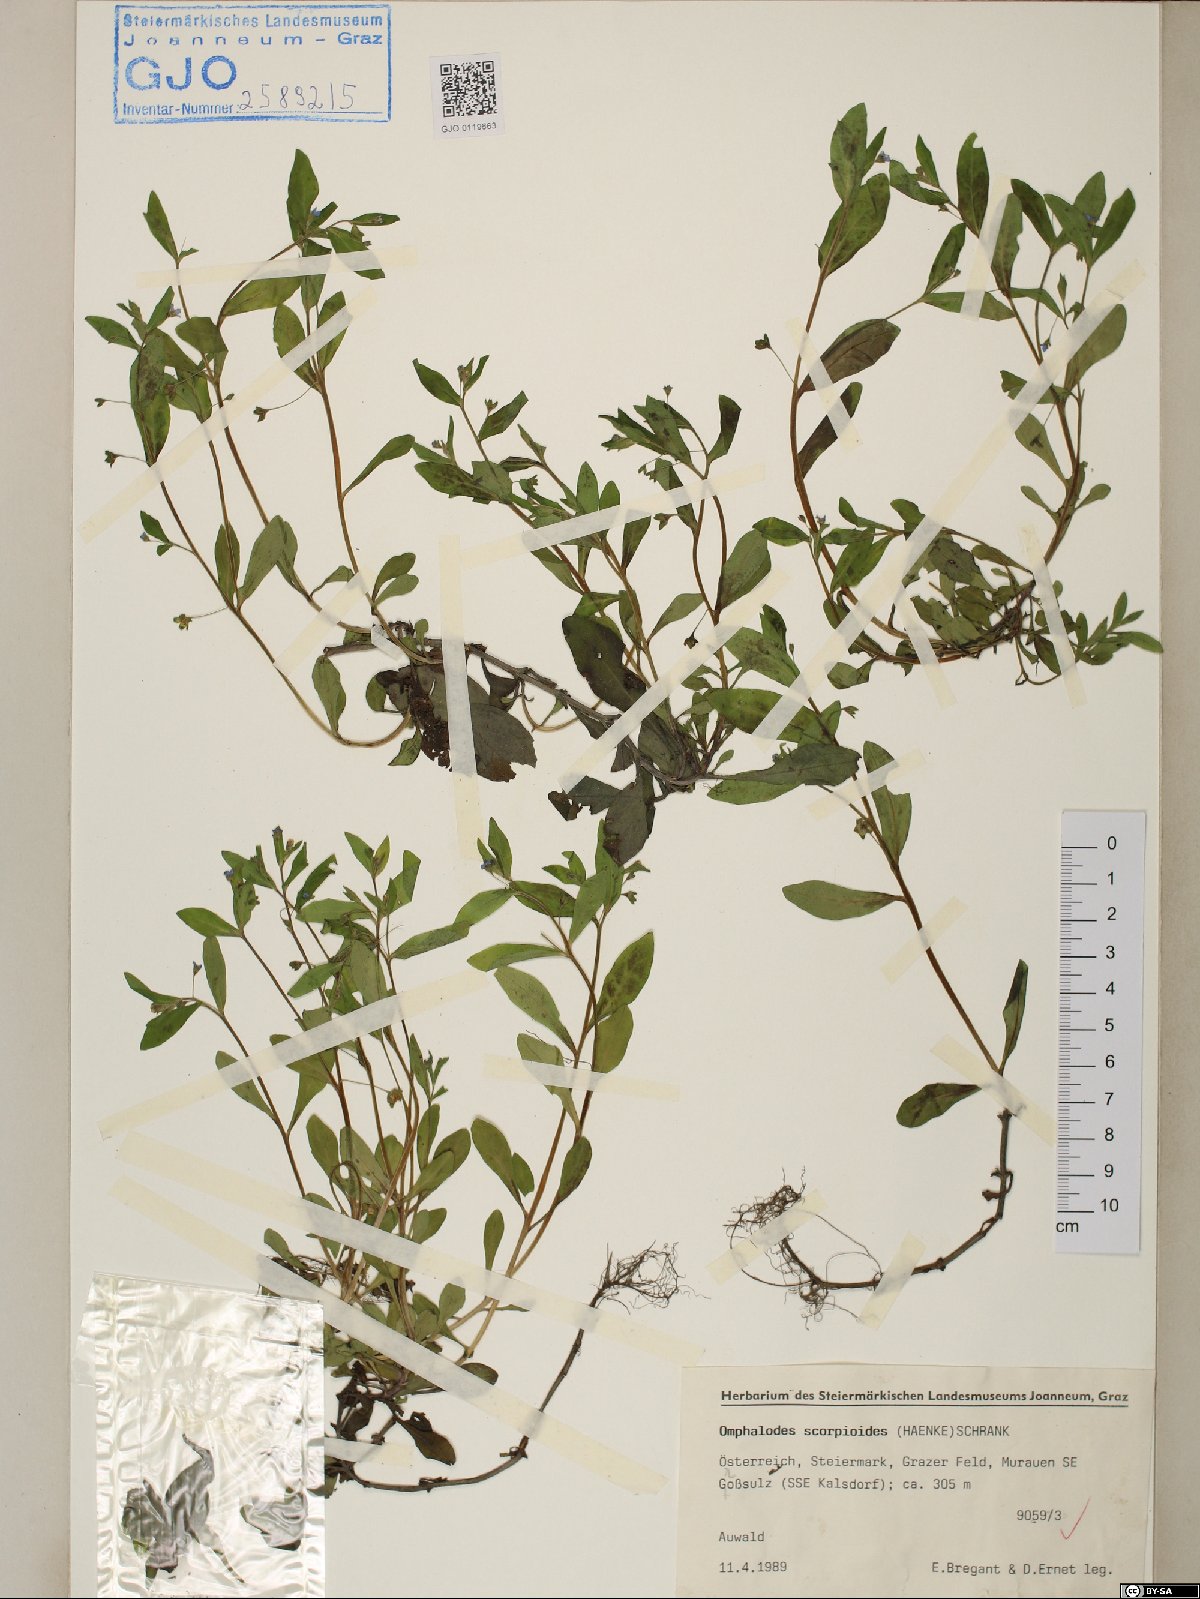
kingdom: Plantae
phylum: Tracheophyta
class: Magnoliopsida
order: Boraginales
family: Boraginaceae
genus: Memoremea
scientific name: Memoremea scorpioides
